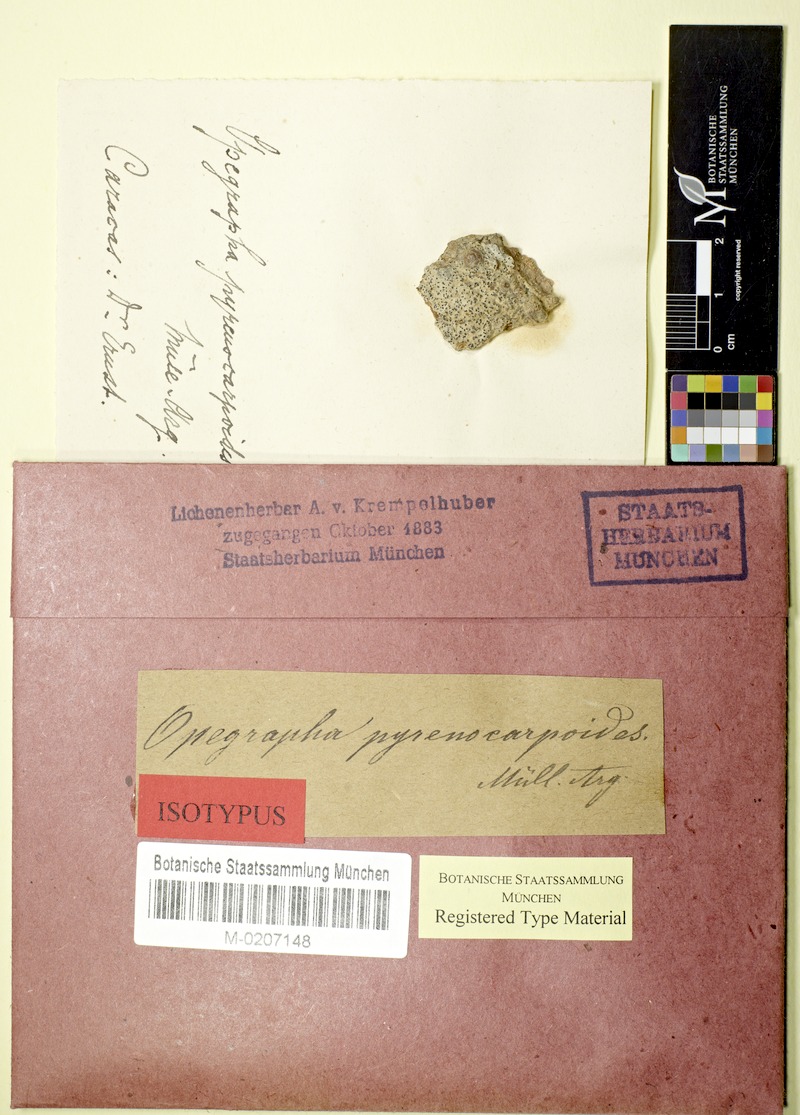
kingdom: Fungi
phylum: Ascomycota
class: Arthoniomycetes
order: Arthoniales
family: Arthoniaceae
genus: Tylophorella
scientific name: Tylophorella pyrenocarpoides
